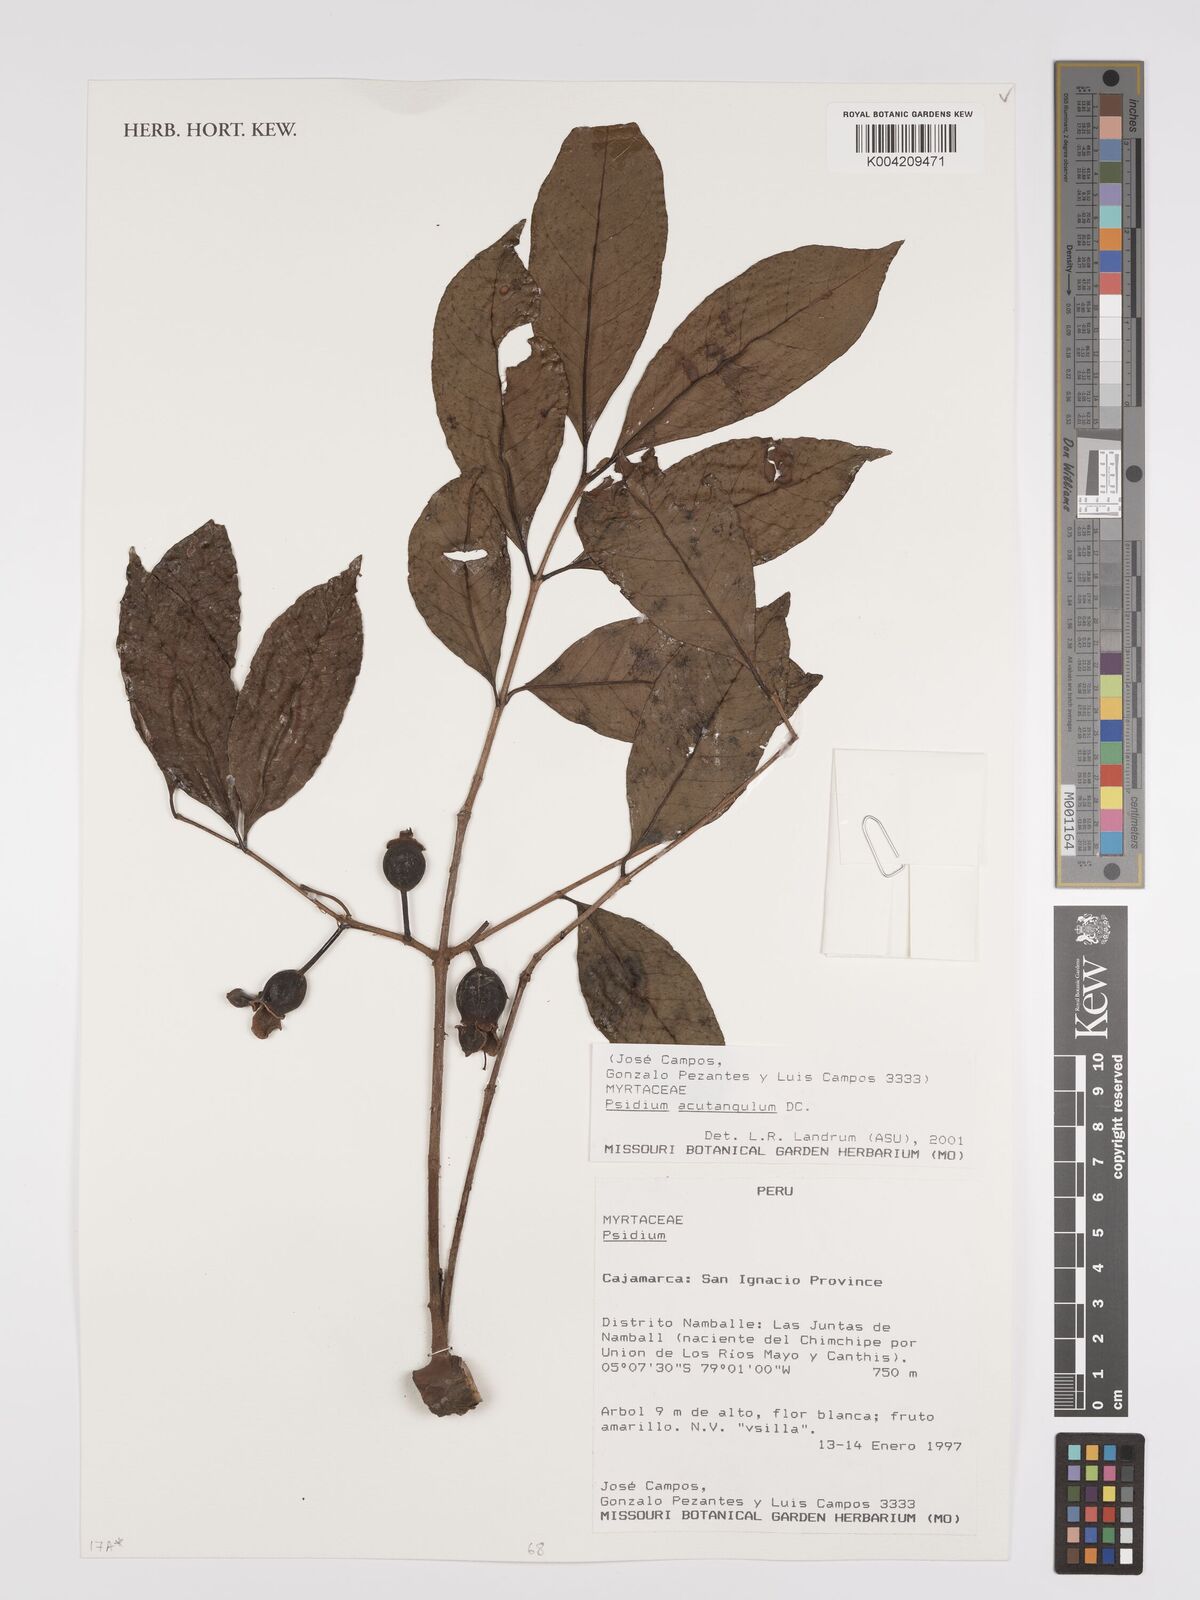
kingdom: Plantae
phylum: Tracheophyta
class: Magnoliopsida
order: Myrtales
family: Myrtaceae
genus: Psidium
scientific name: Psidium acutangulum
